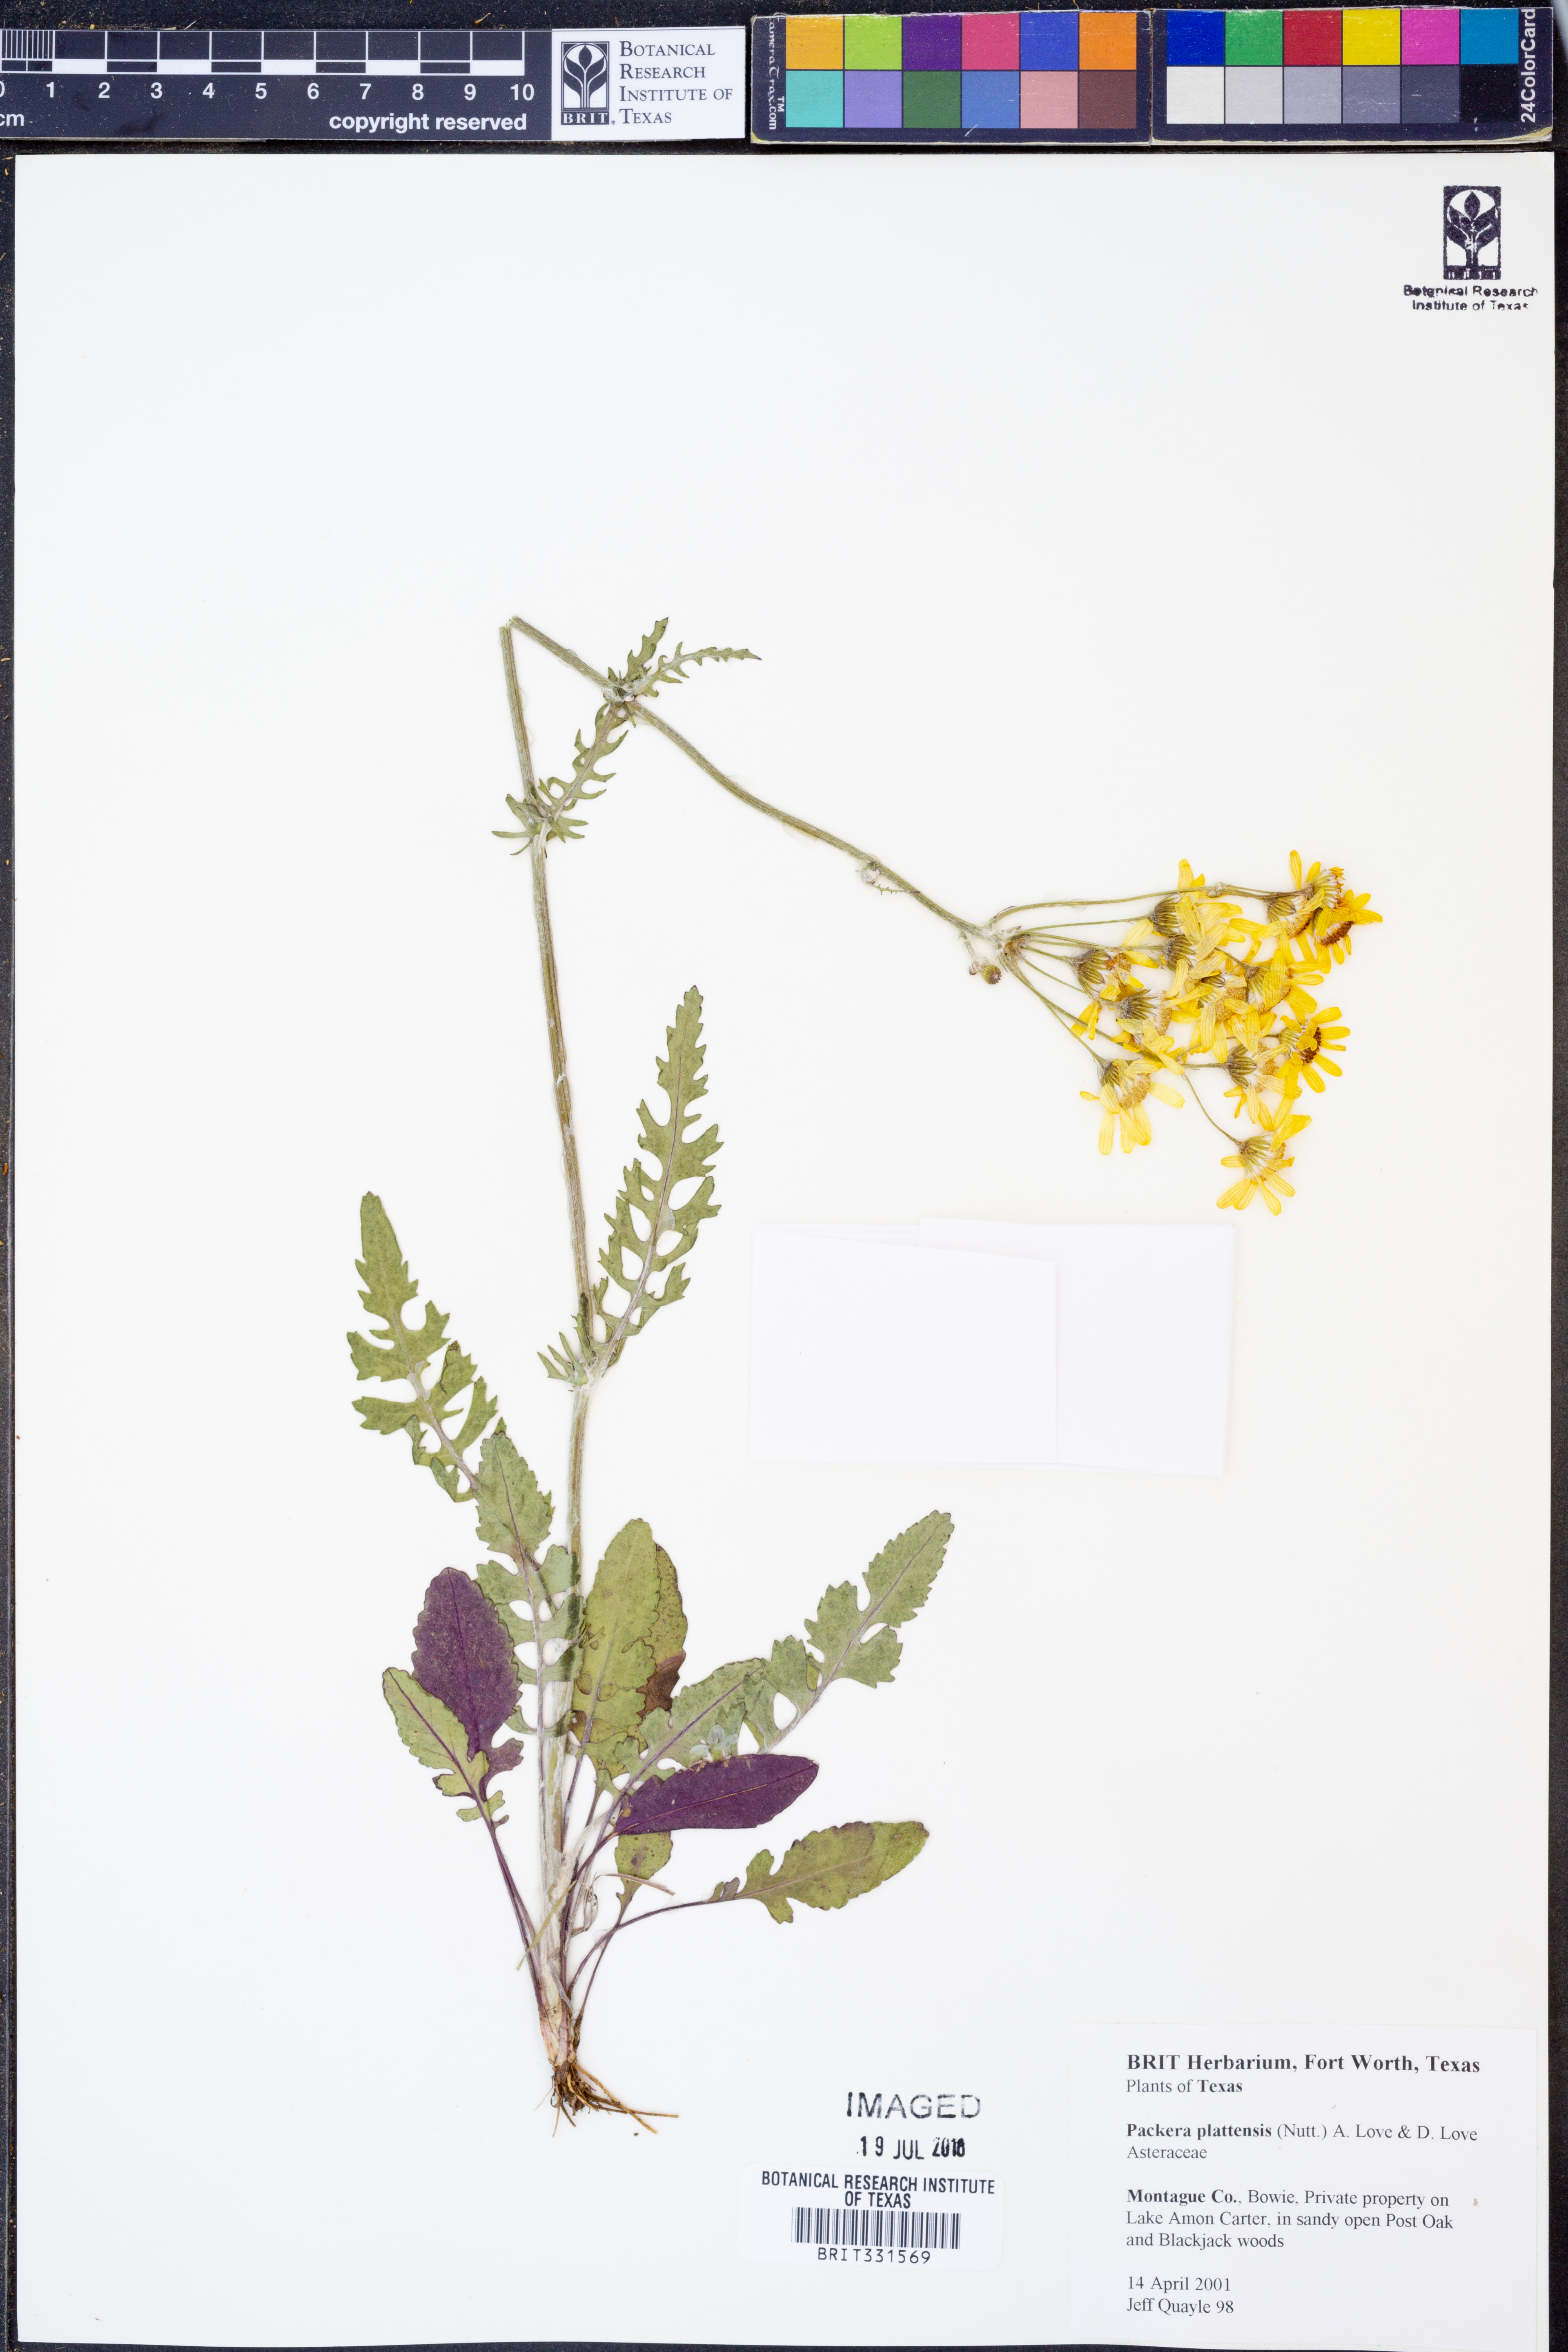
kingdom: Plantae
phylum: Tracheophyta
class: Magnoliopsida
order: Asterales
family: Asteraceae
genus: Packera
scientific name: Packera plattensis
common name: Prairie groundsel
